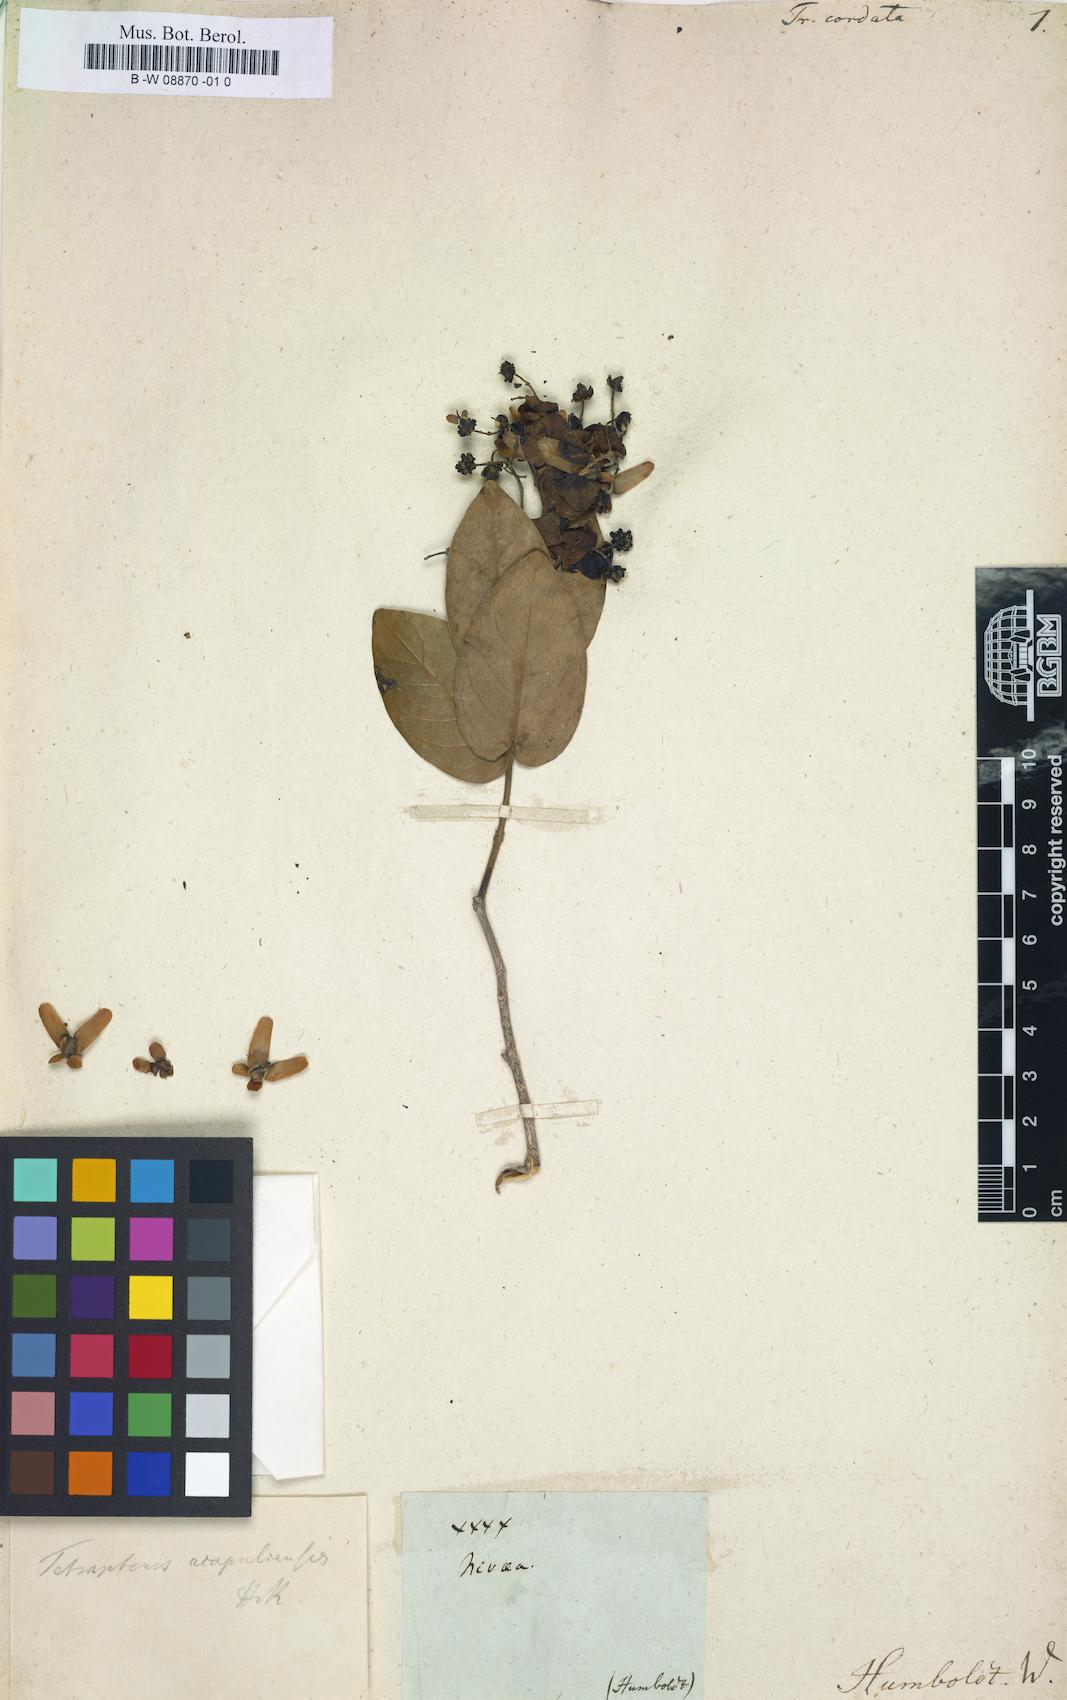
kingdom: Plantae
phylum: Tracheophyta
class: Magnoliopsida
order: Malpighiales
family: Malpighiaceae
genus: Triopterys
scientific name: Triopterys
